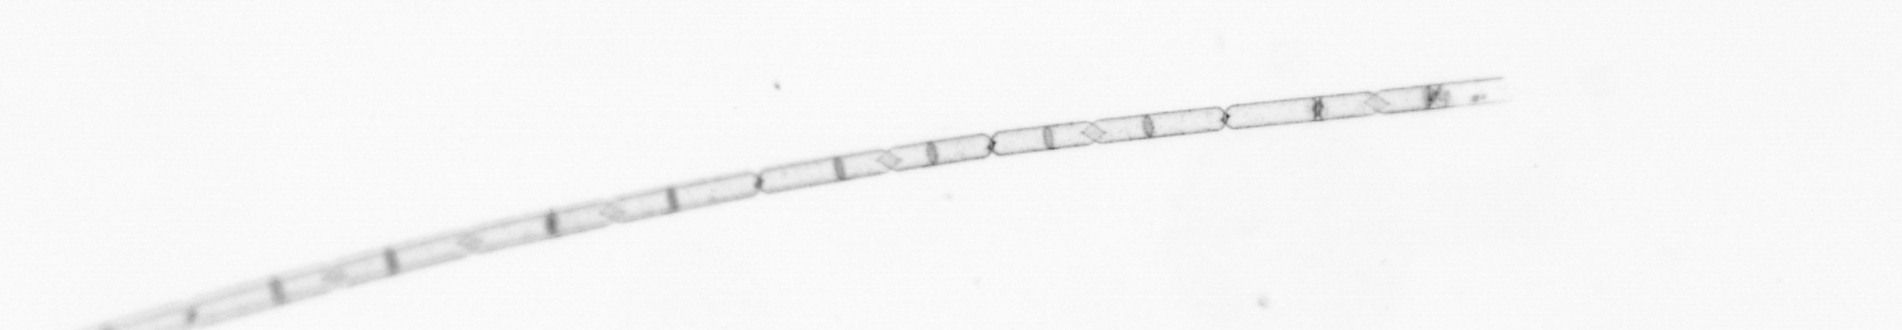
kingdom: Chromista
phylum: Ochrophyta
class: Bacillariophyceae
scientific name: Bacillariophyceae
